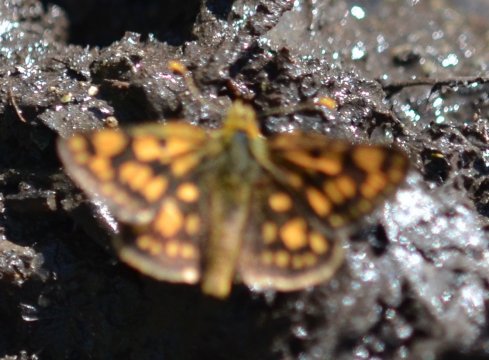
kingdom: Animalia
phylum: Arthropoda
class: Insecta
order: Lepidoptera
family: Hesperiidae
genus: Carterocephalus
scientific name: Carterocephalus palaemon
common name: Chequered Skipper
